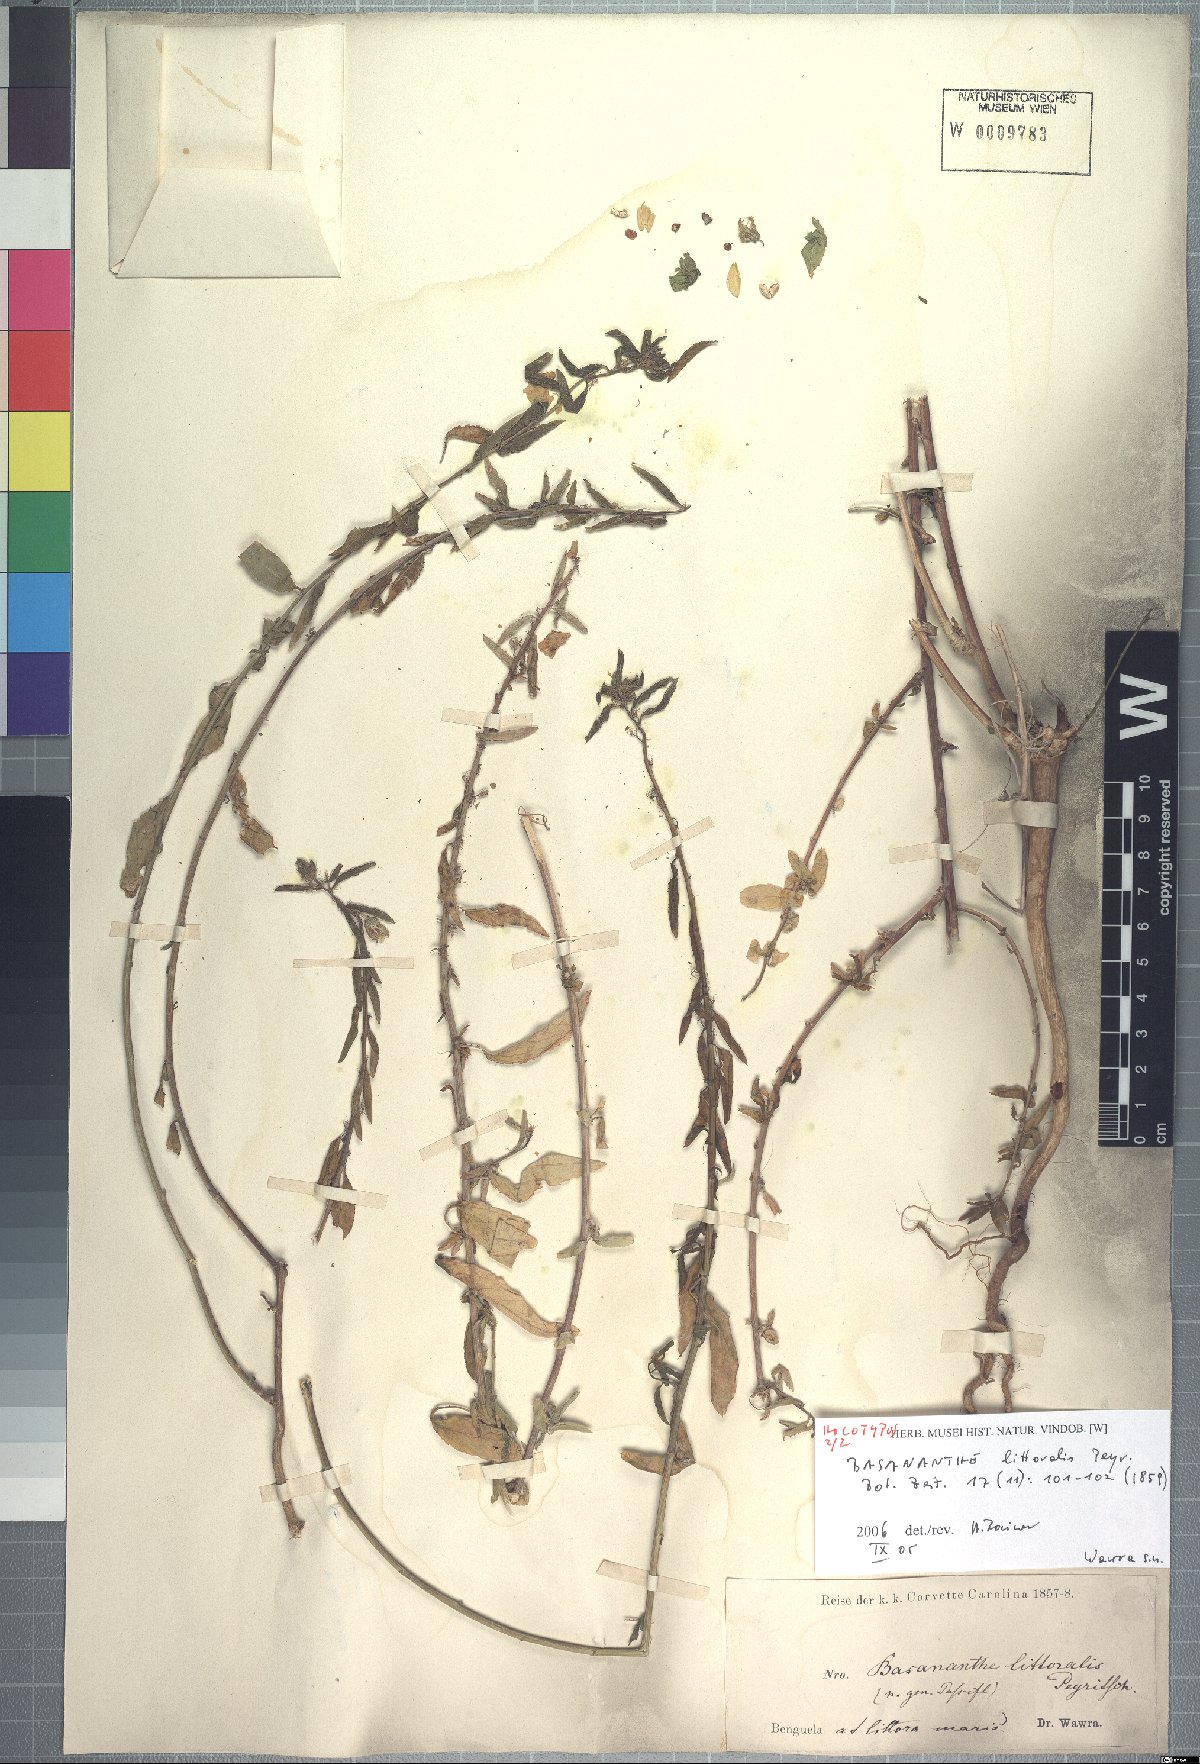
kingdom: Plantae
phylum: Tracheophyta
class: Magnoliopsida
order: Malpighiales
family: Passifloraceae
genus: Basananthe
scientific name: Basananthe littoralis
